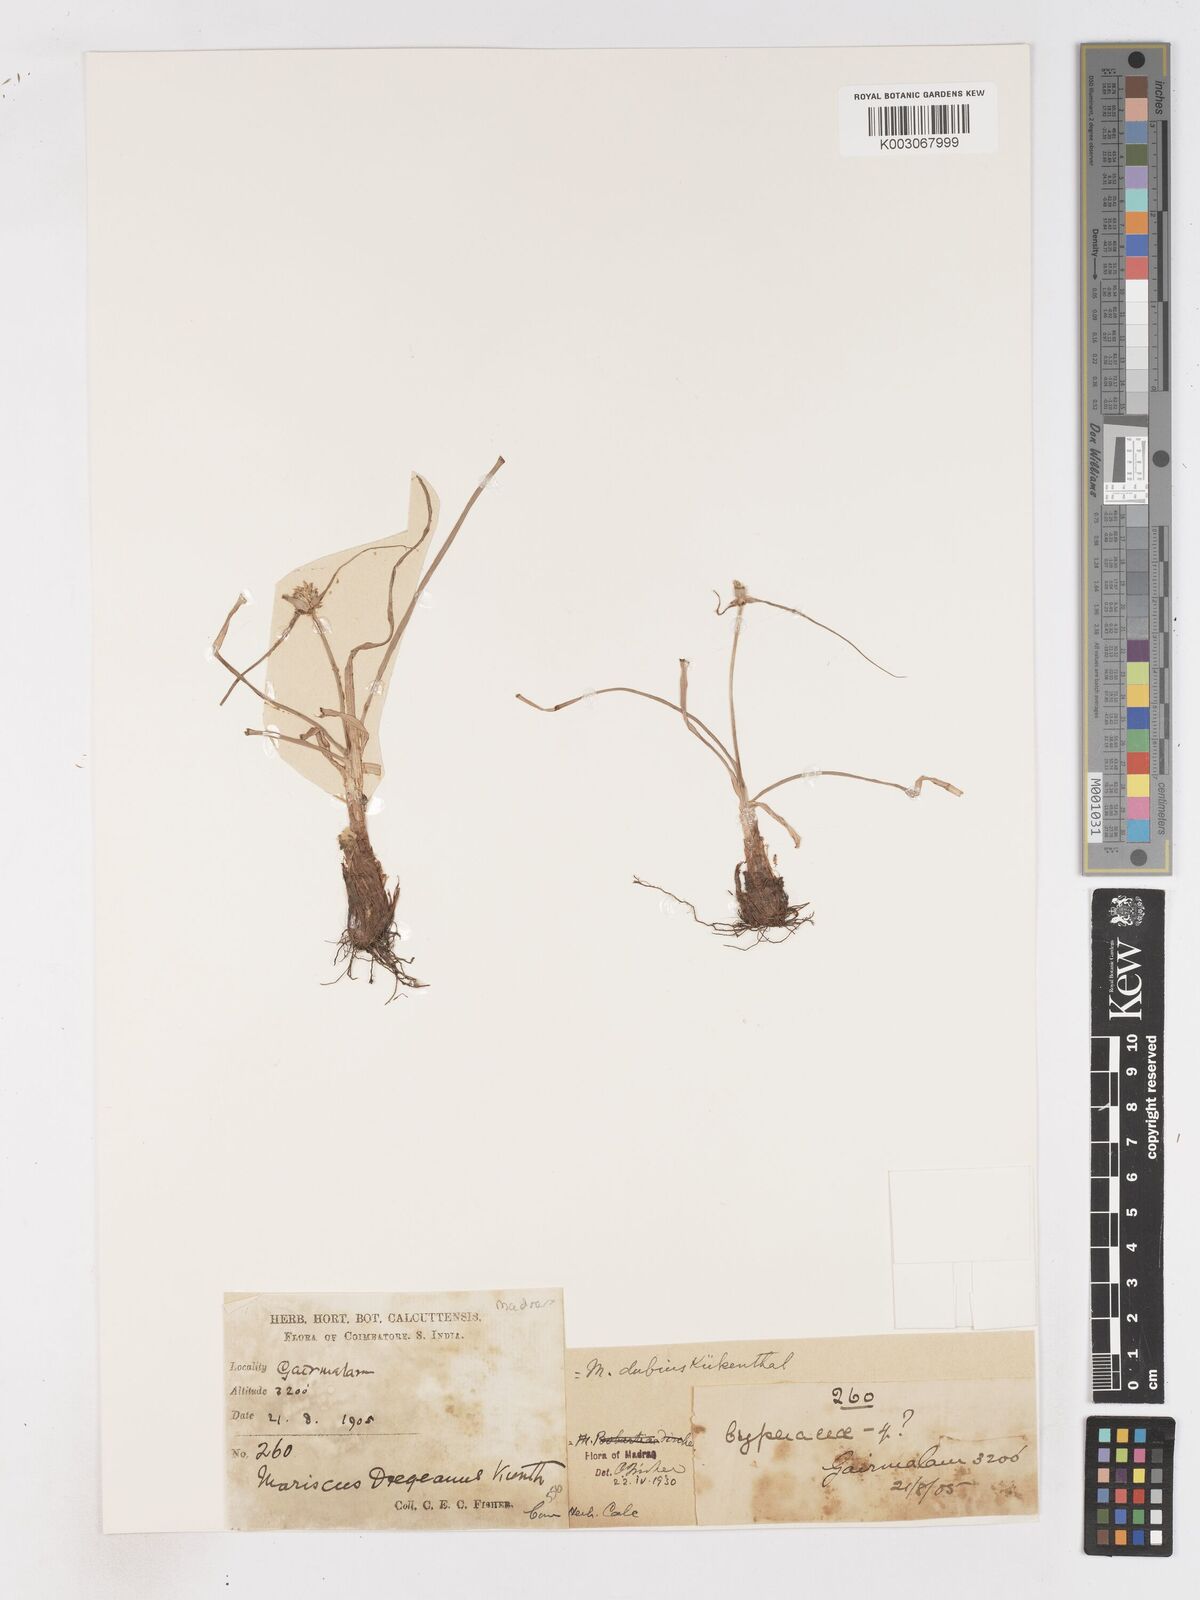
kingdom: Plantae
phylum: Tracheophyta
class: Liliopsida
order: Poales
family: Cyperaceae
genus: Cyperus
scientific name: Cyperus dubius
